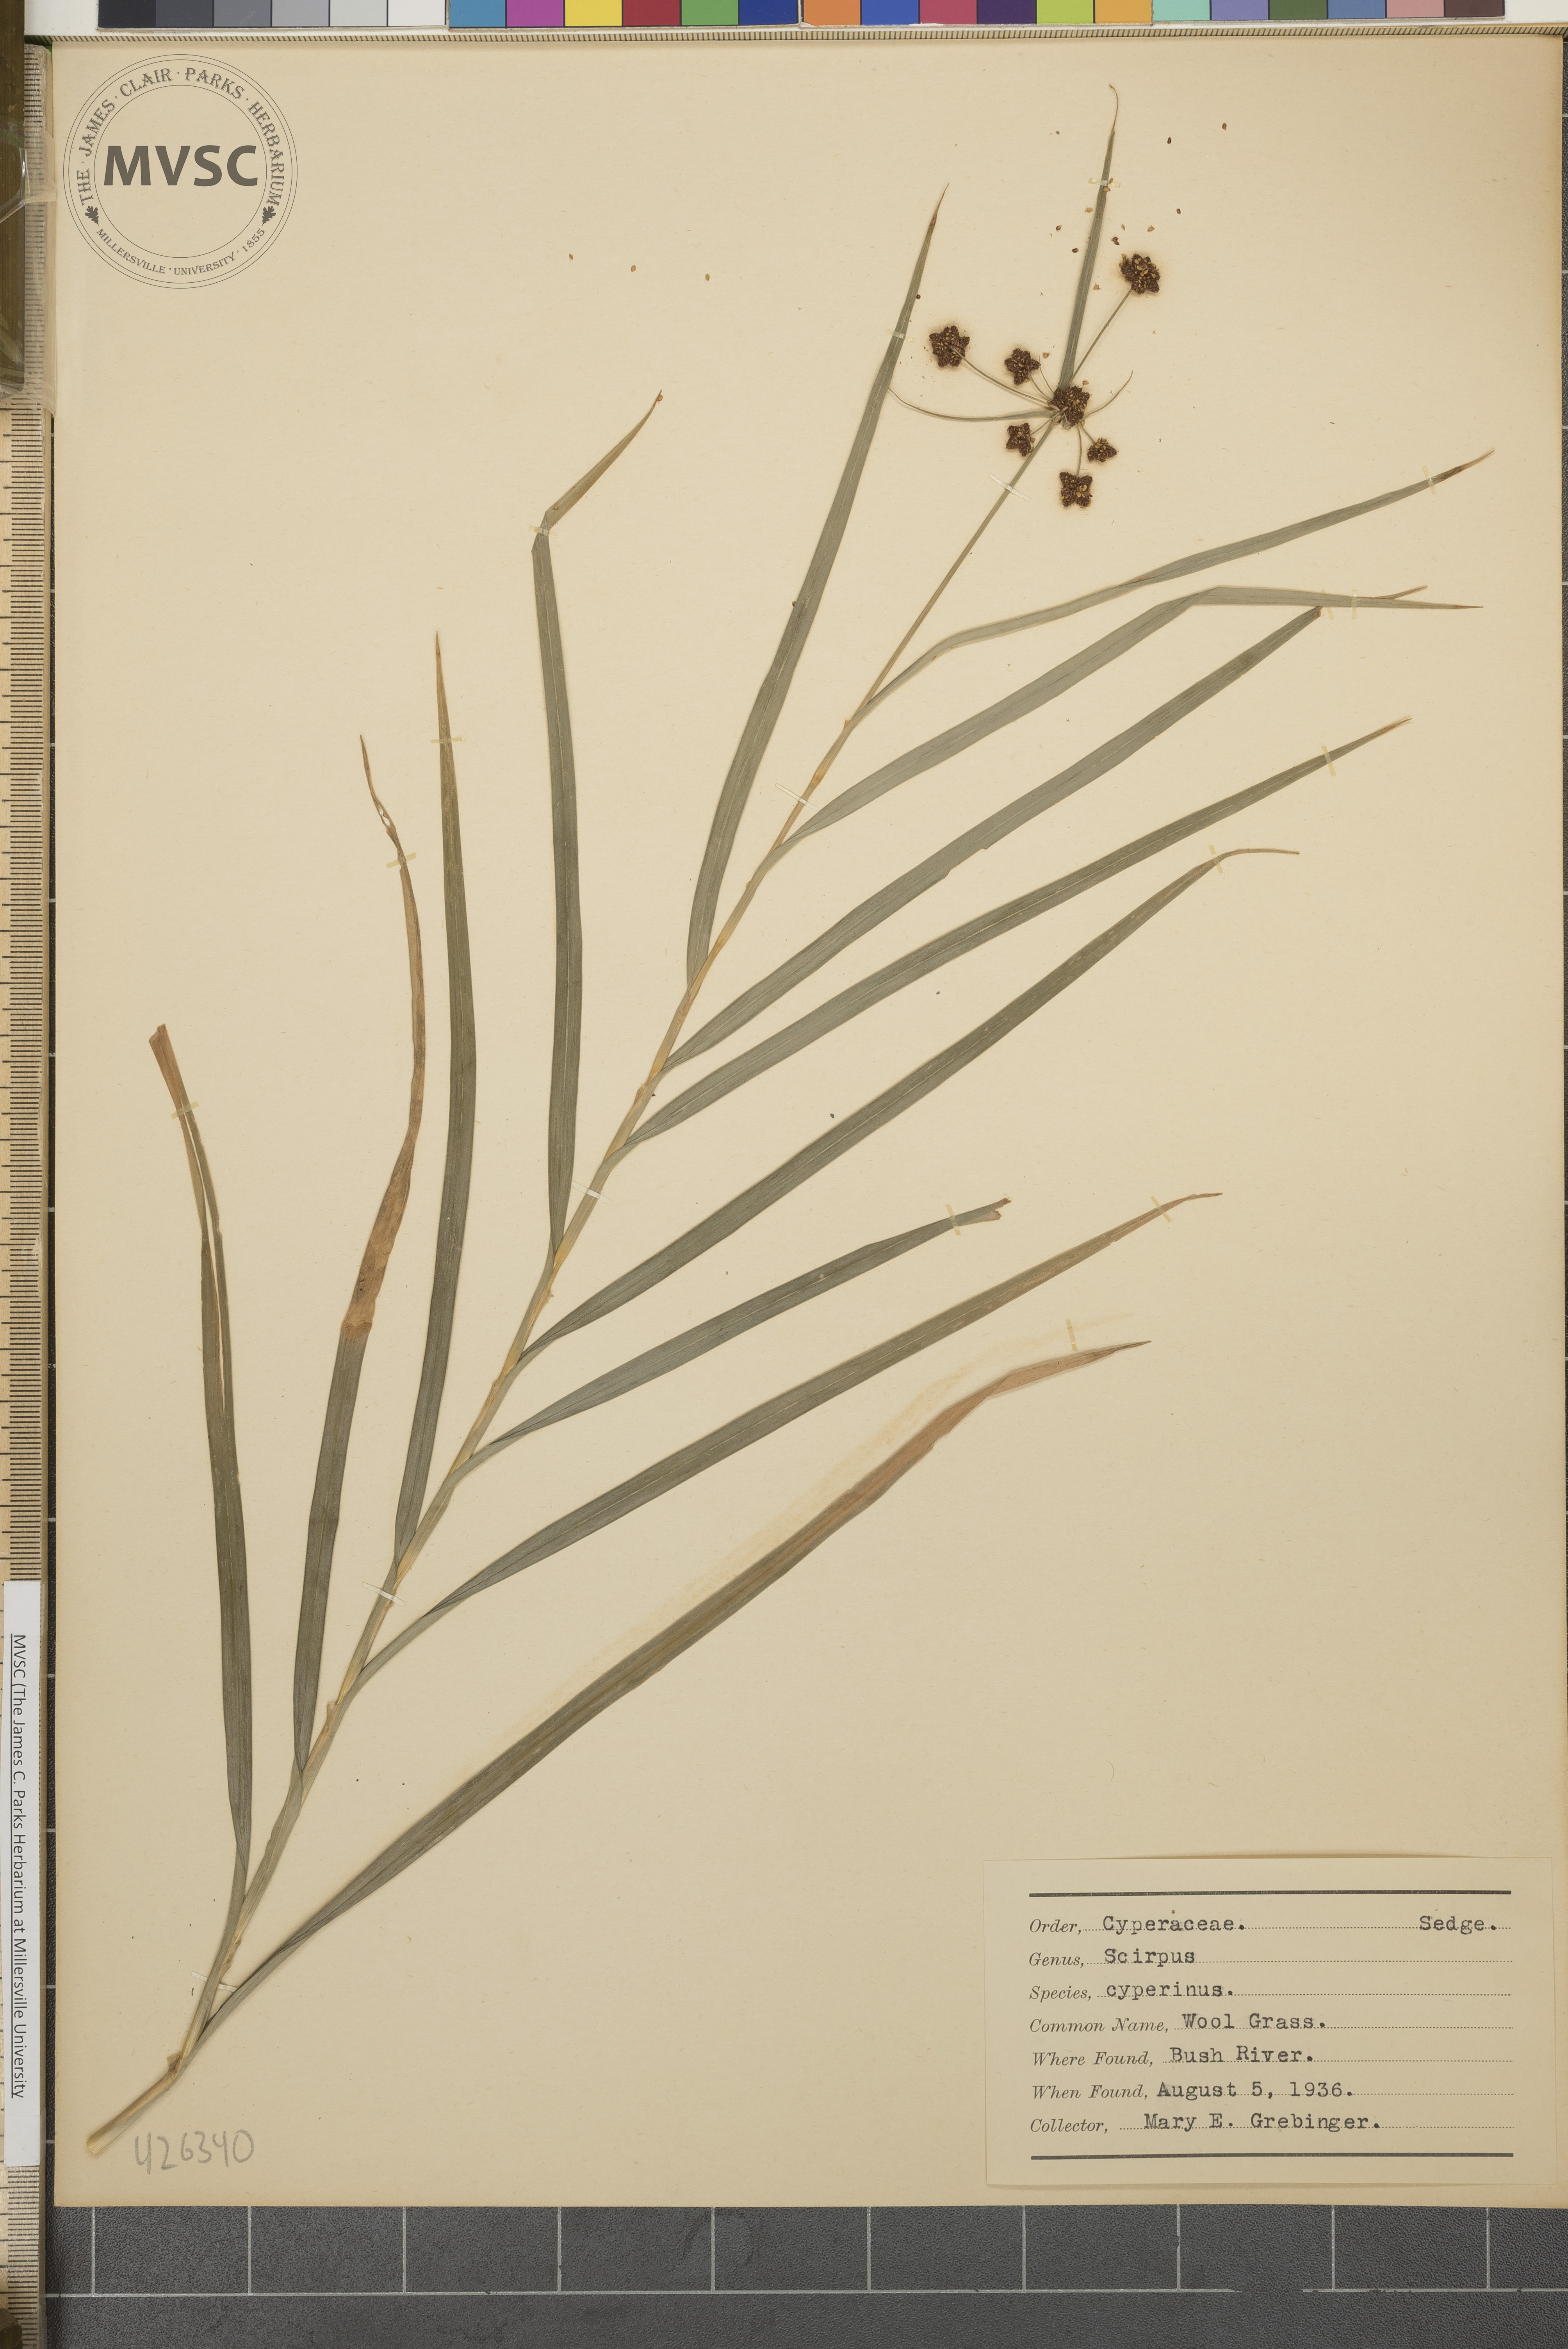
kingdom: Plantae
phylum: Tracheophyta
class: Liliopsida
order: Poales
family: Cyperaceae
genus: Scirpus
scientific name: Scirpus polyphyllus
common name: Leafy bulrush
